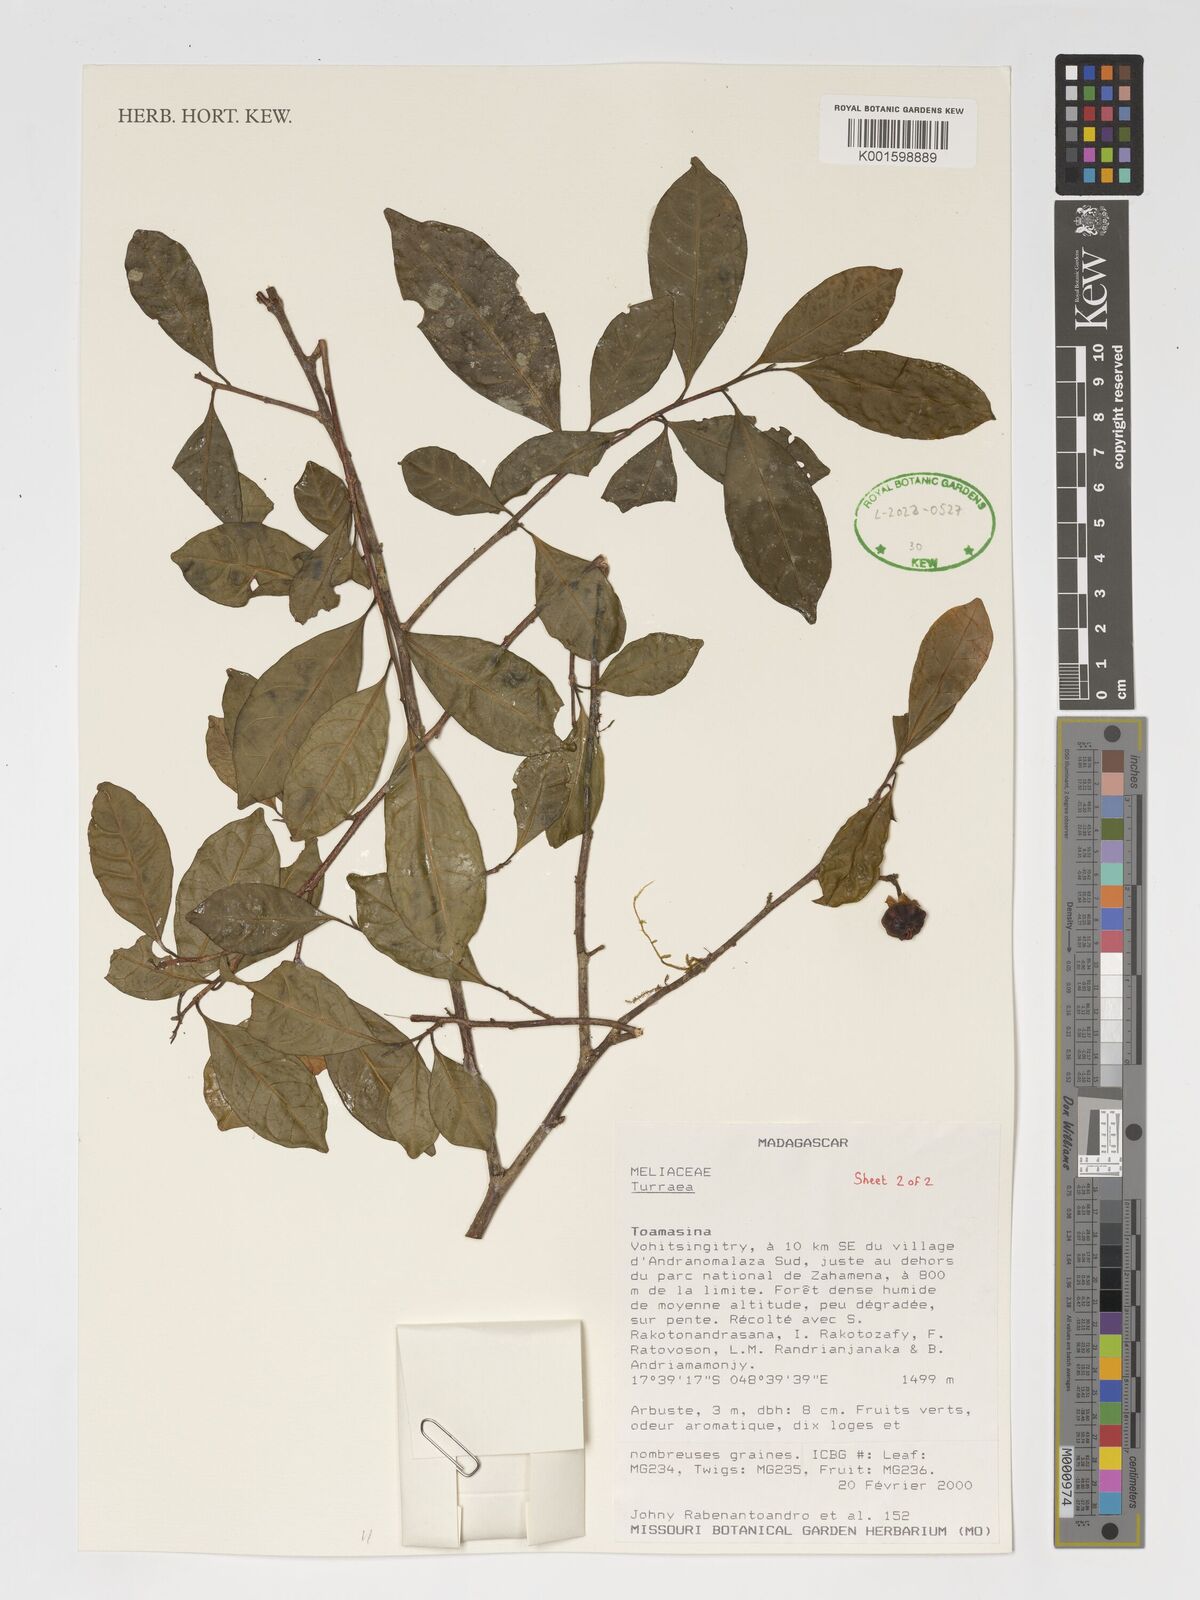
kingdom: Plantae
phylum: Tracheophyta
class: Magnoliopsida
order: Sapindales
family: Meliaceae
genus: Turraea
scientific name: Turraea
